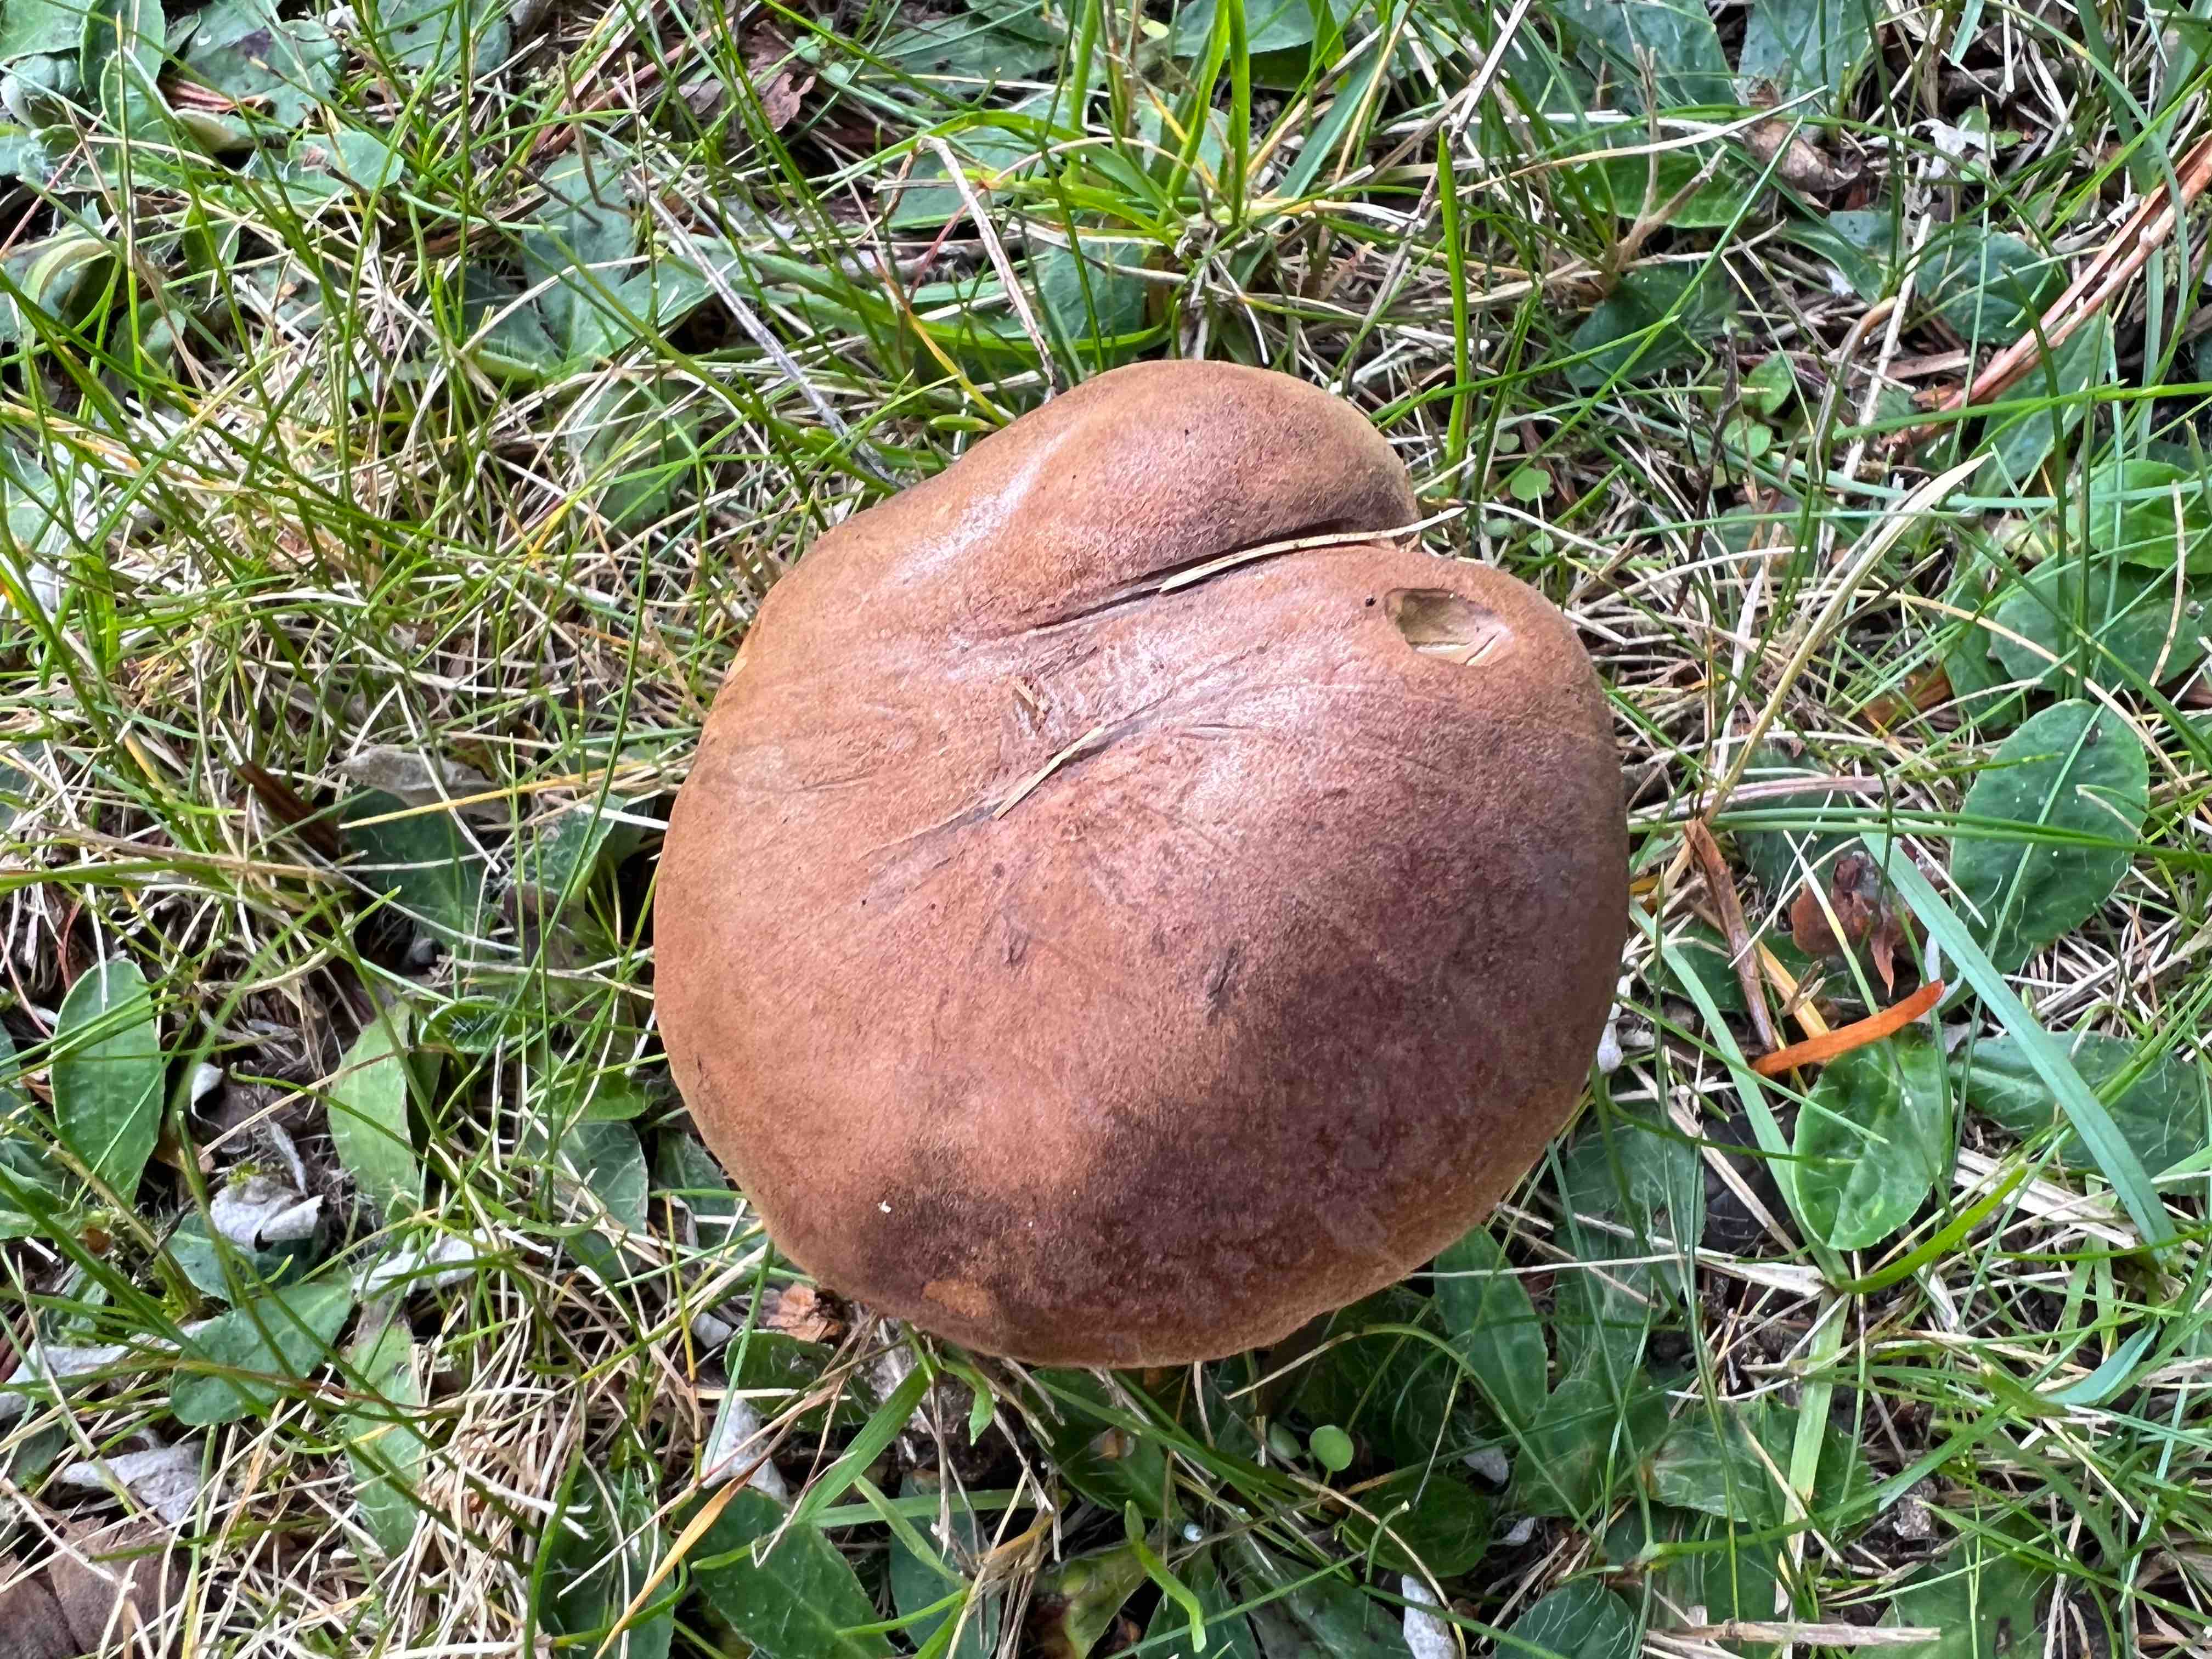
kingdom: Fungi
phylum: Basidiomycota
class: Agaricomycetes
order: Boletales
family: Boletaceae
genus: Imleria
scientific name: Imleria badia
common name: brunstokket rørhat
